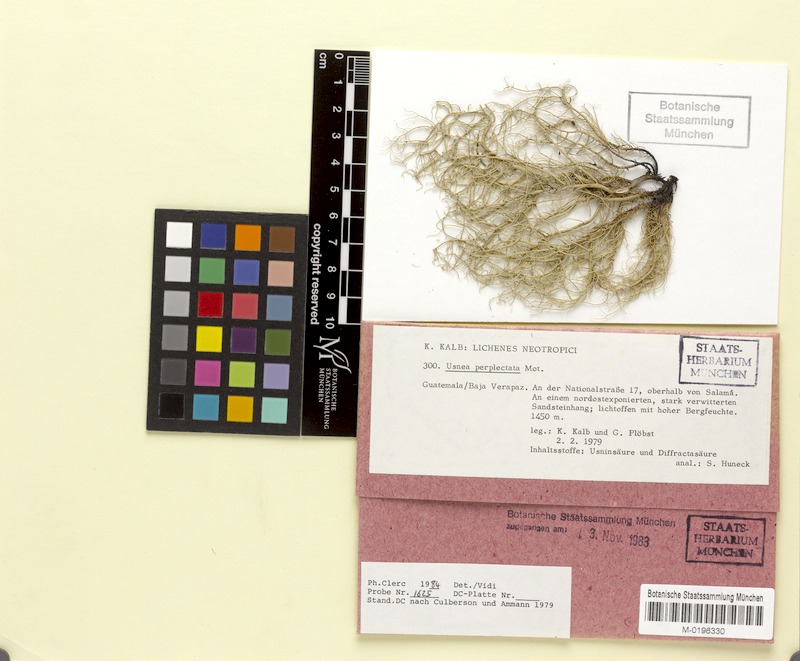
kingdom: Fungi
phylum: Ascomycota
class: Lecanoromycetes
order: Lecanorales
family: Parmeliaceae
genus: Usnea
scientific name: Usnea perplectata
